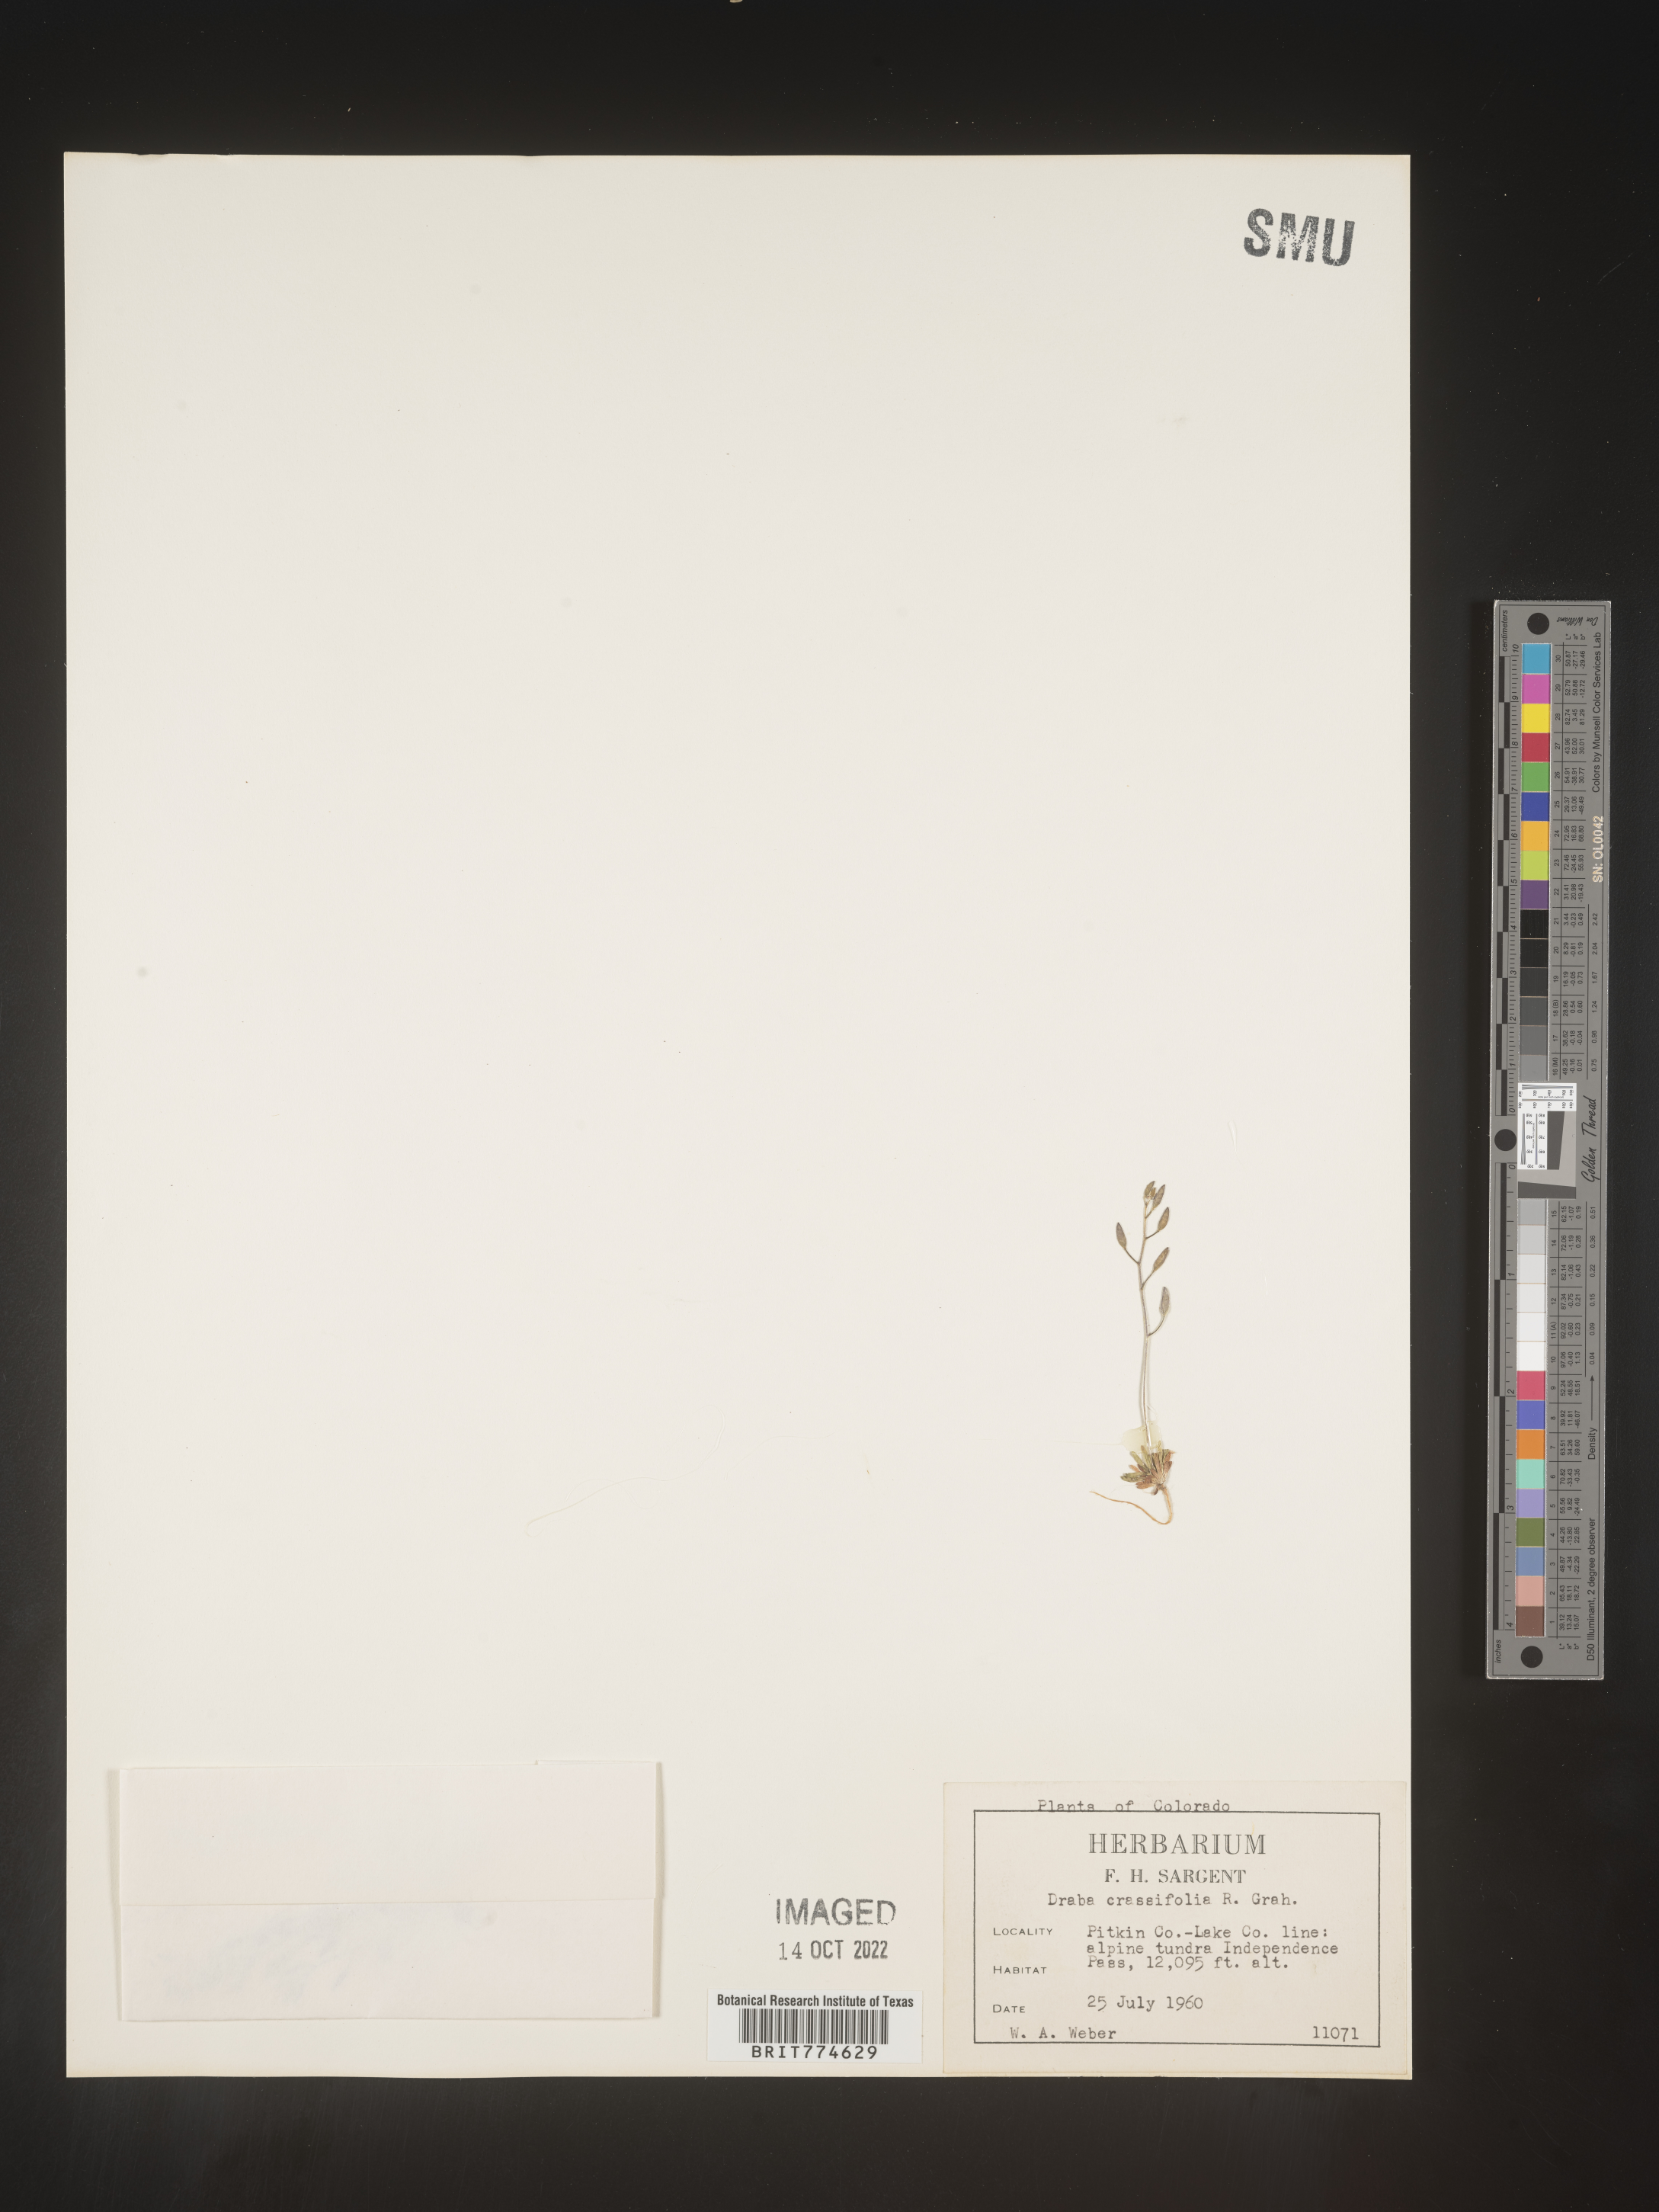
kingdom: Plantae
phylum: Tracheophyta
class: Magnoliopsida
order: Brassicales
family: Brassicaceae
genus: Draba
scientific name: Draba
